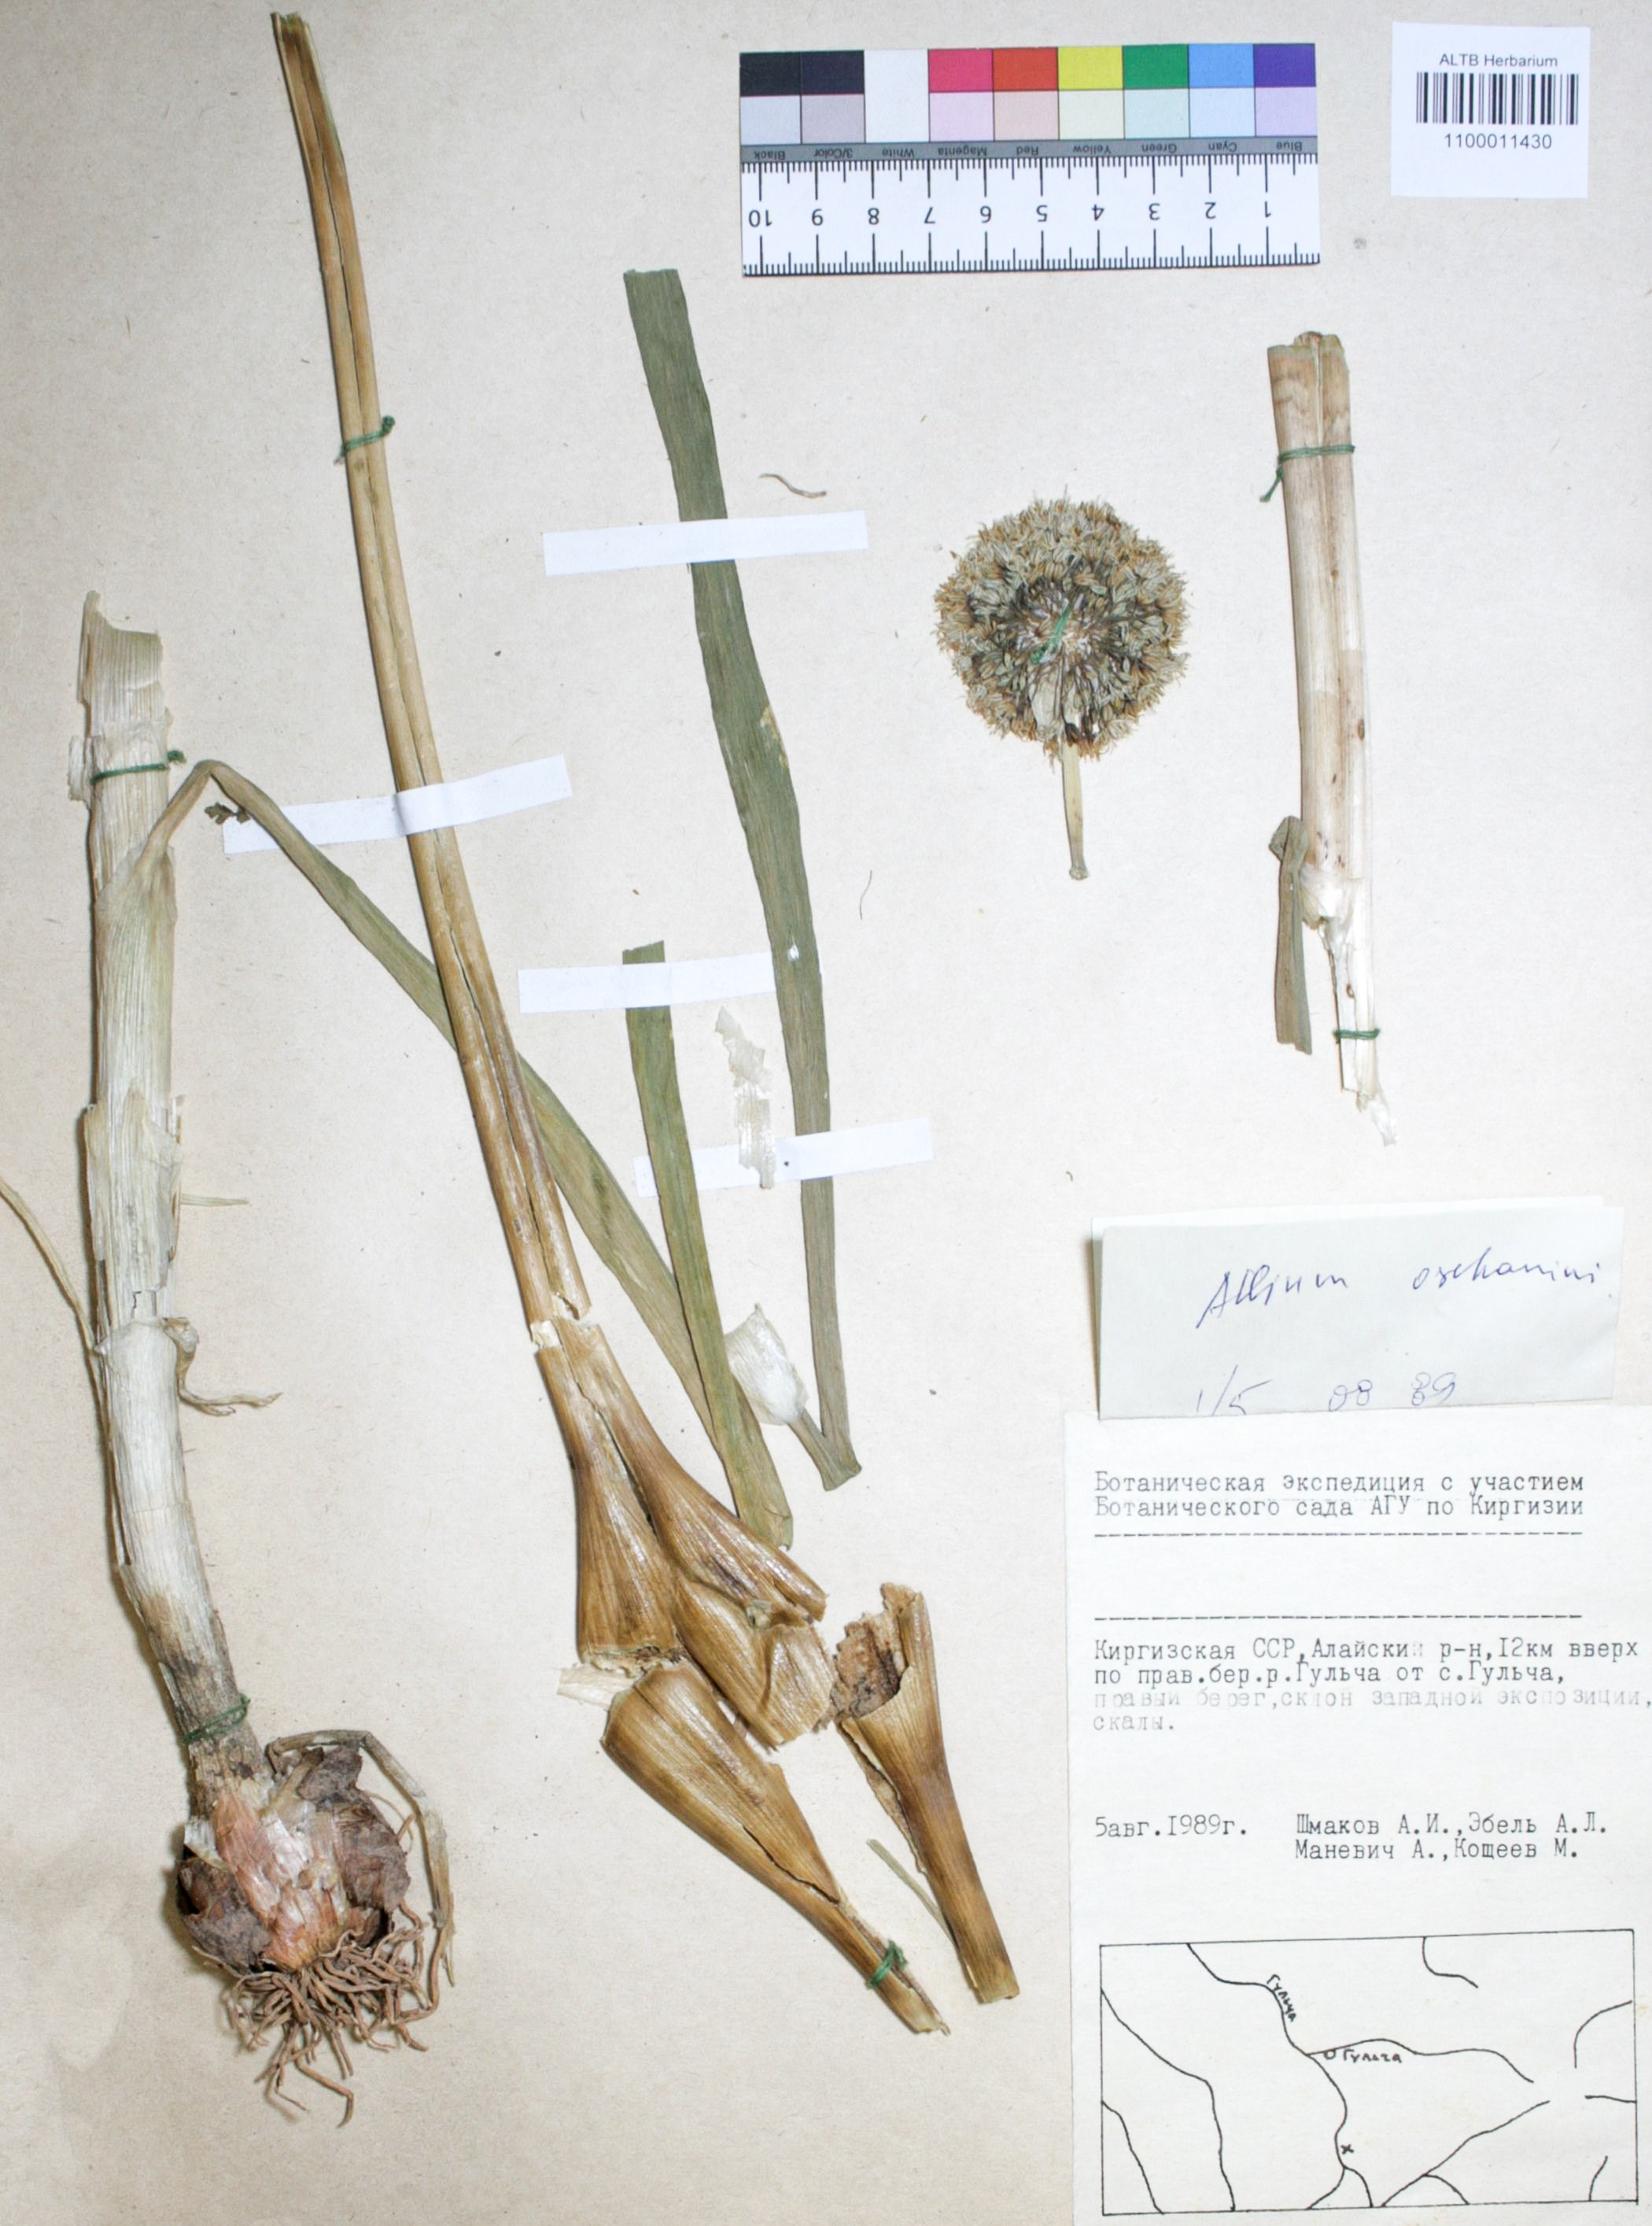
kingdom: Plantae
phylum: Tracheophyta
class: Liliopsida
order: Asparagales
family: Amaryllidaceae
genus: Allium
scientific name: Allium oschaninii
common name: French grey shallot
